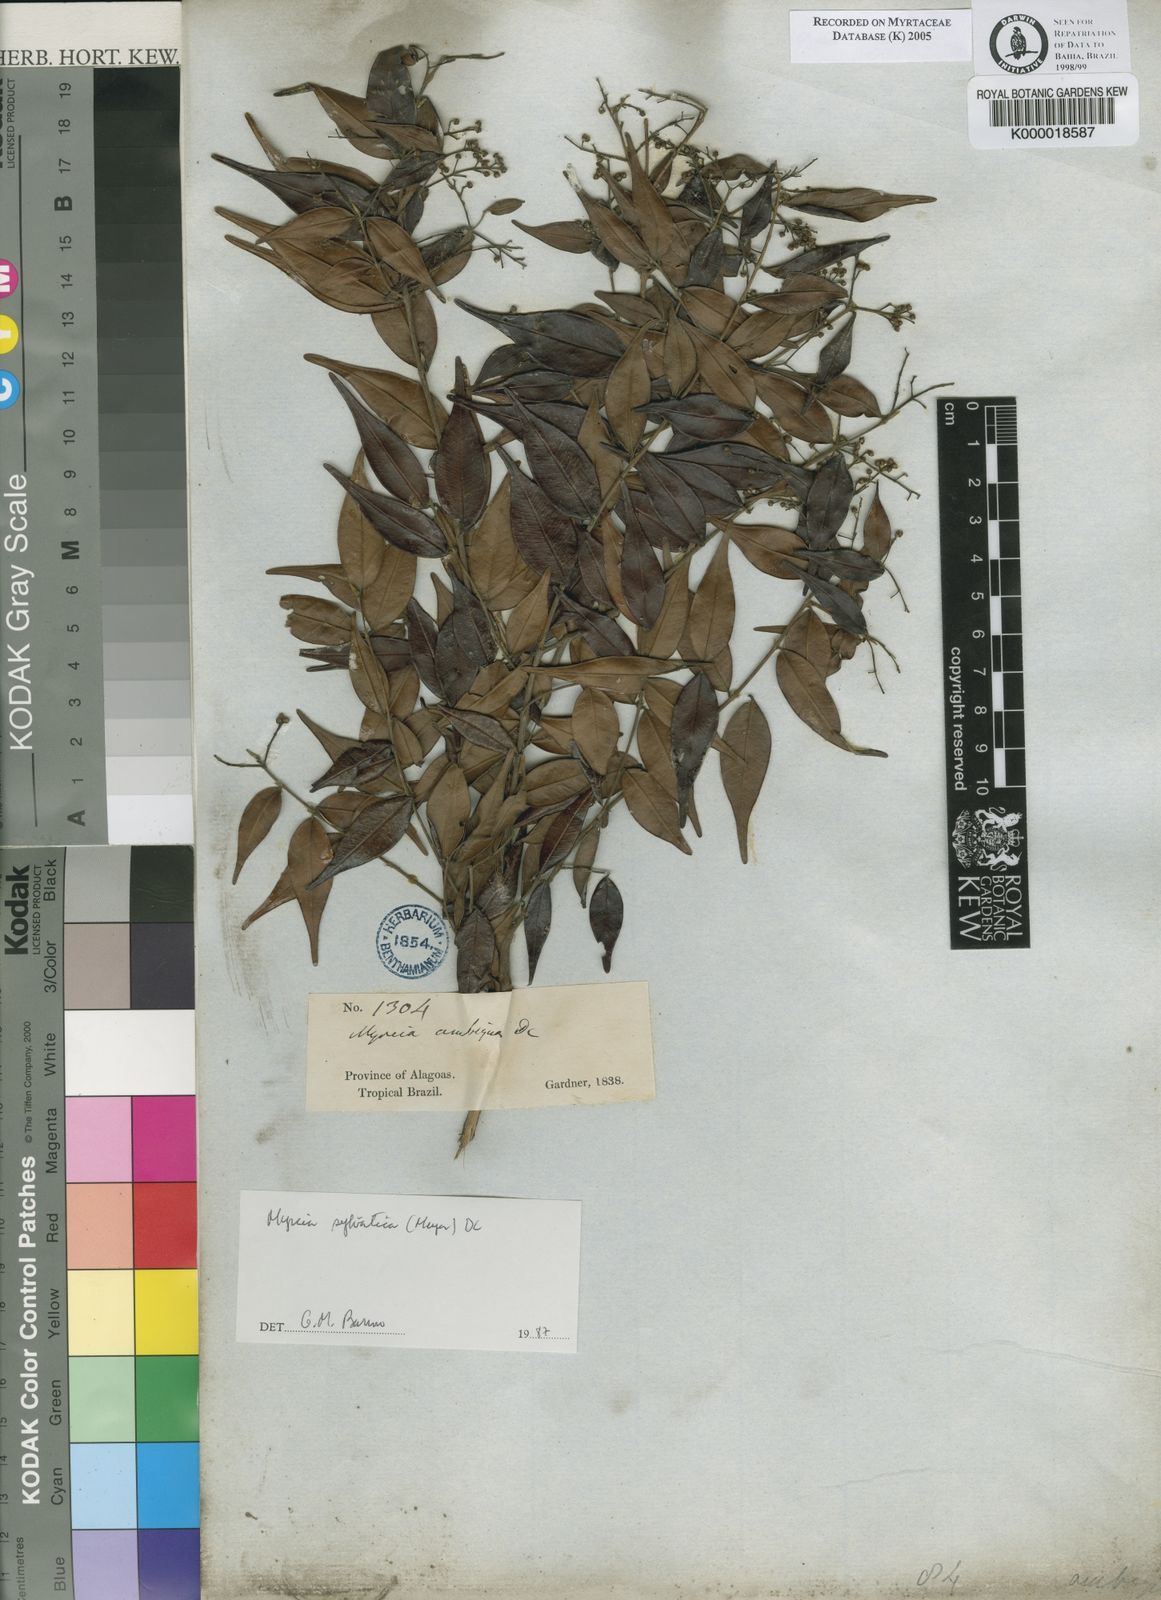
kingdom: Plantae
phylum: Tracheophyta
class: Magnoliopsida
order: Myrtales
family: Myrtaceae
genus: Myrcia
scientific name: Myrcia sylvatica
